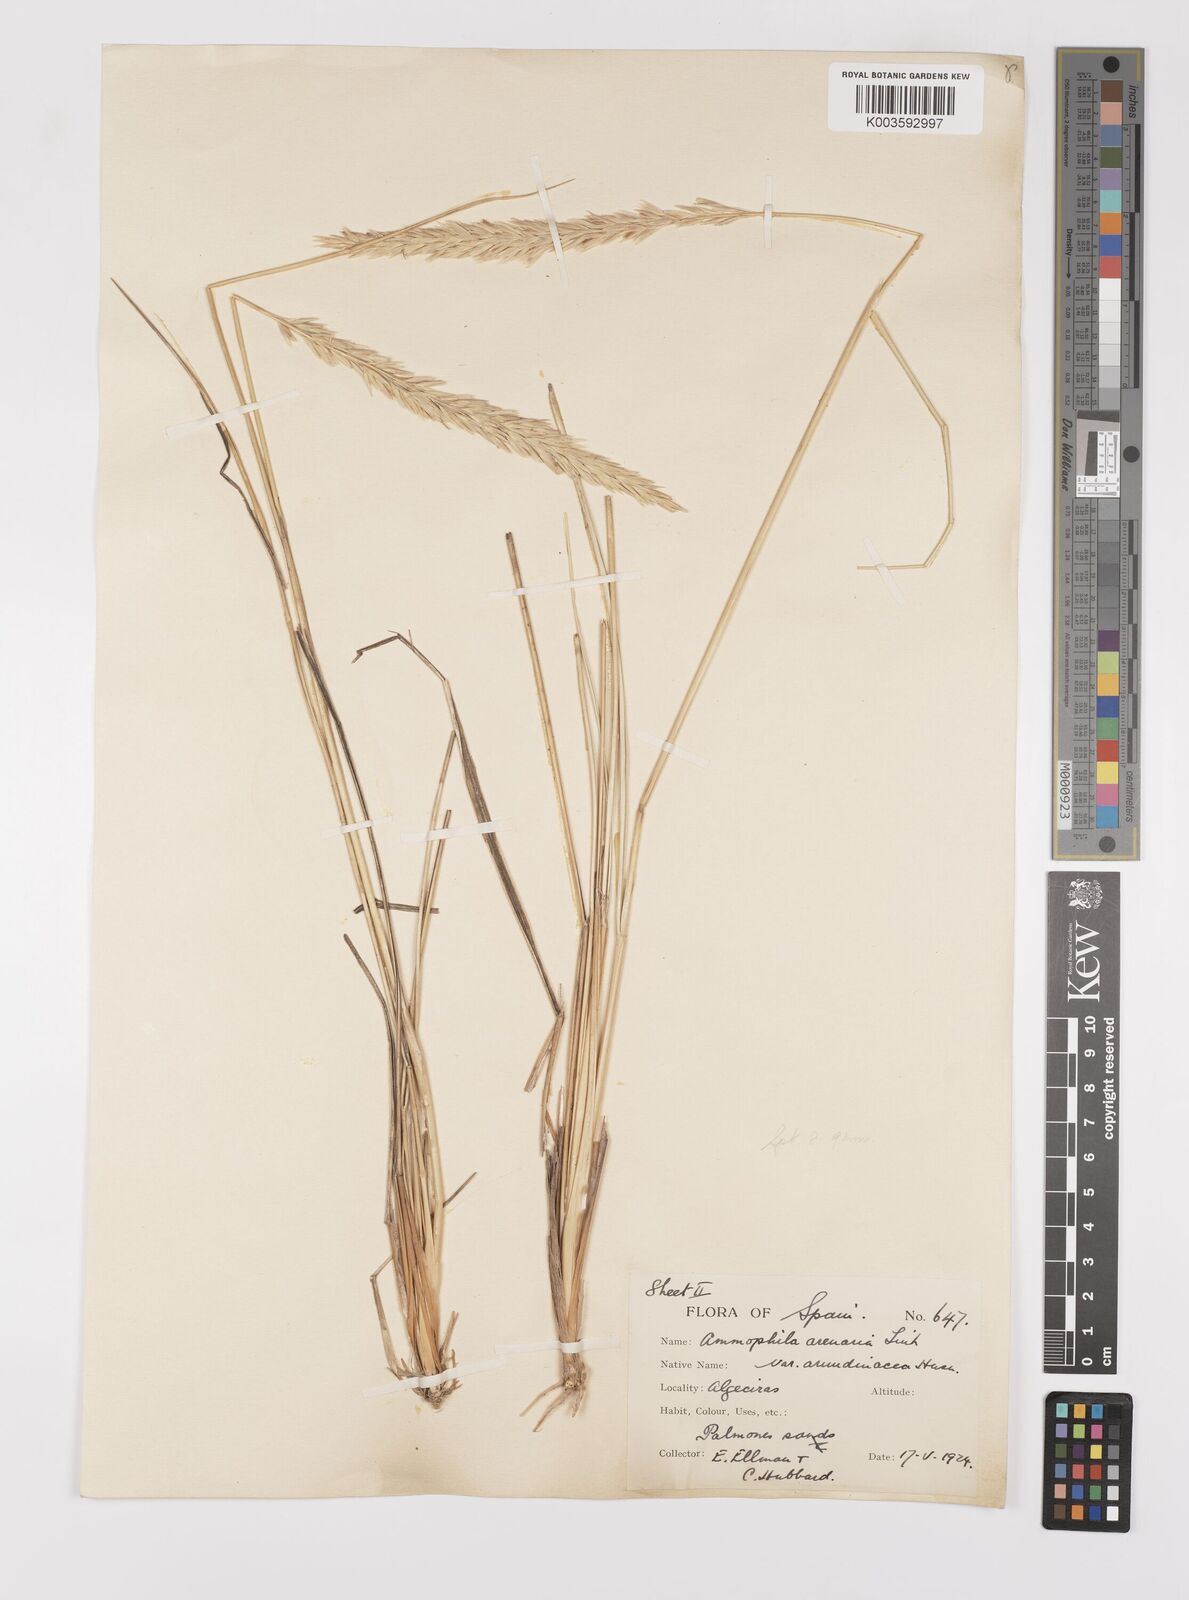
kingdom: Plantae
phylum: Tracheophyta
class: Liliopsida
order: Poales
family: Poaceae
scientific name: Poaceae
